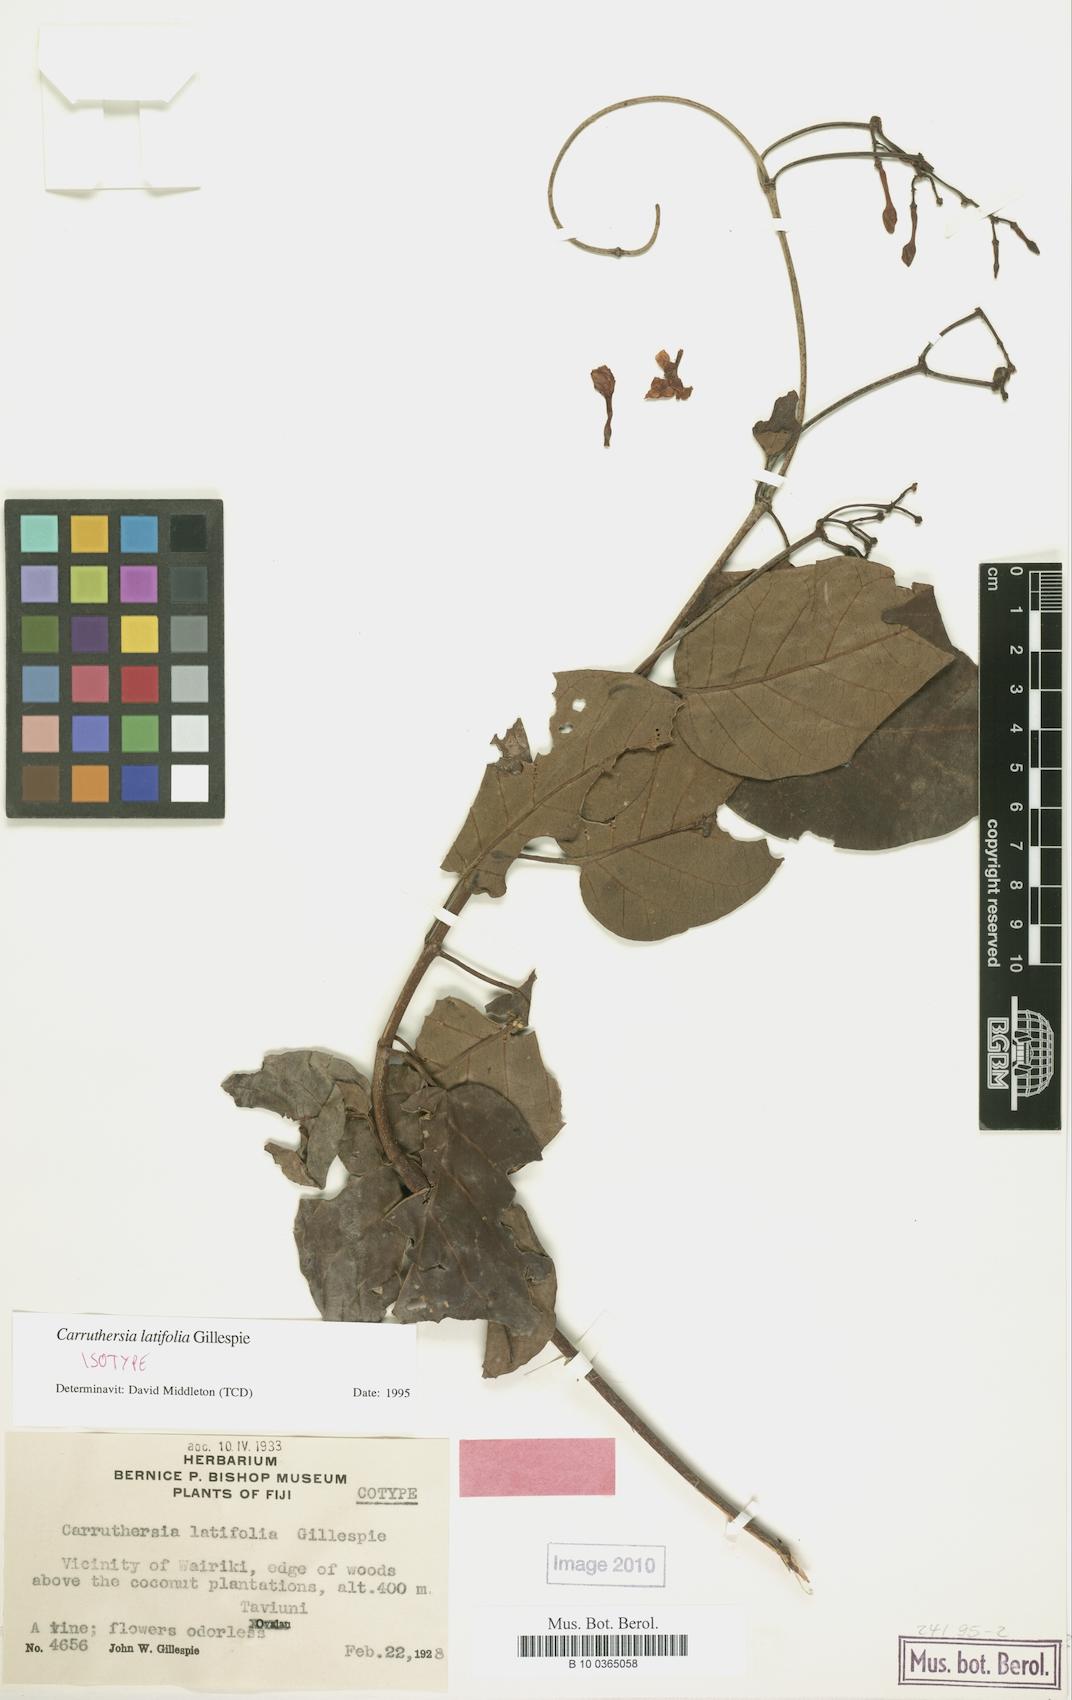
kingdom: Plantae
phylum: Tracheophyta
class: Magnoliopsida
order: Gentianales
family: Apocynaceae
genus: Carruthersia
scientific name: Carruthersia latifolia
